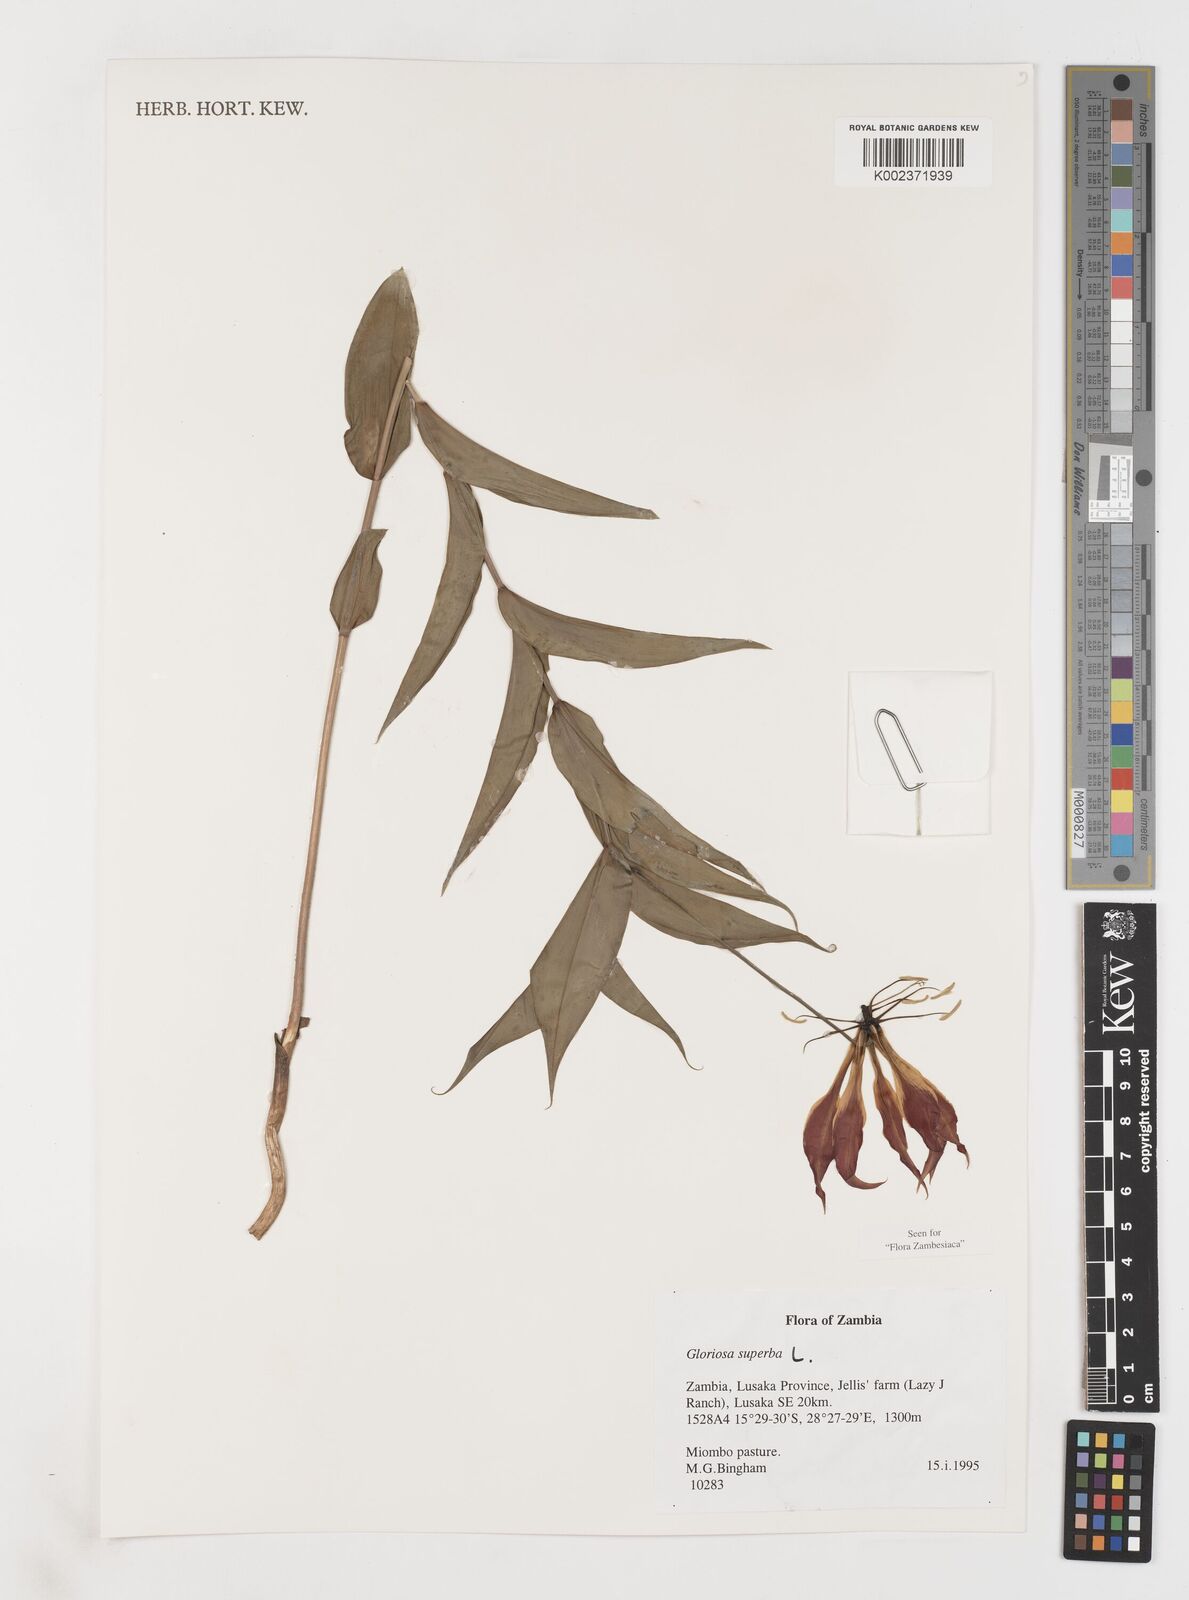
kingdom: Plantae
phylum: Tracheophyta
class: Liliopsida
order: Liliales
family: Colchicaceae
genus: Gloriosa
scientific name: Gloriosa simplex
